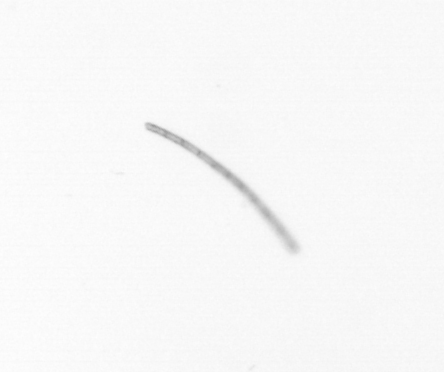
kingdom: Chromista
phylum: Ochrophyta
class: Bacillariophyceae
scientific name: Bacillariophyceae
